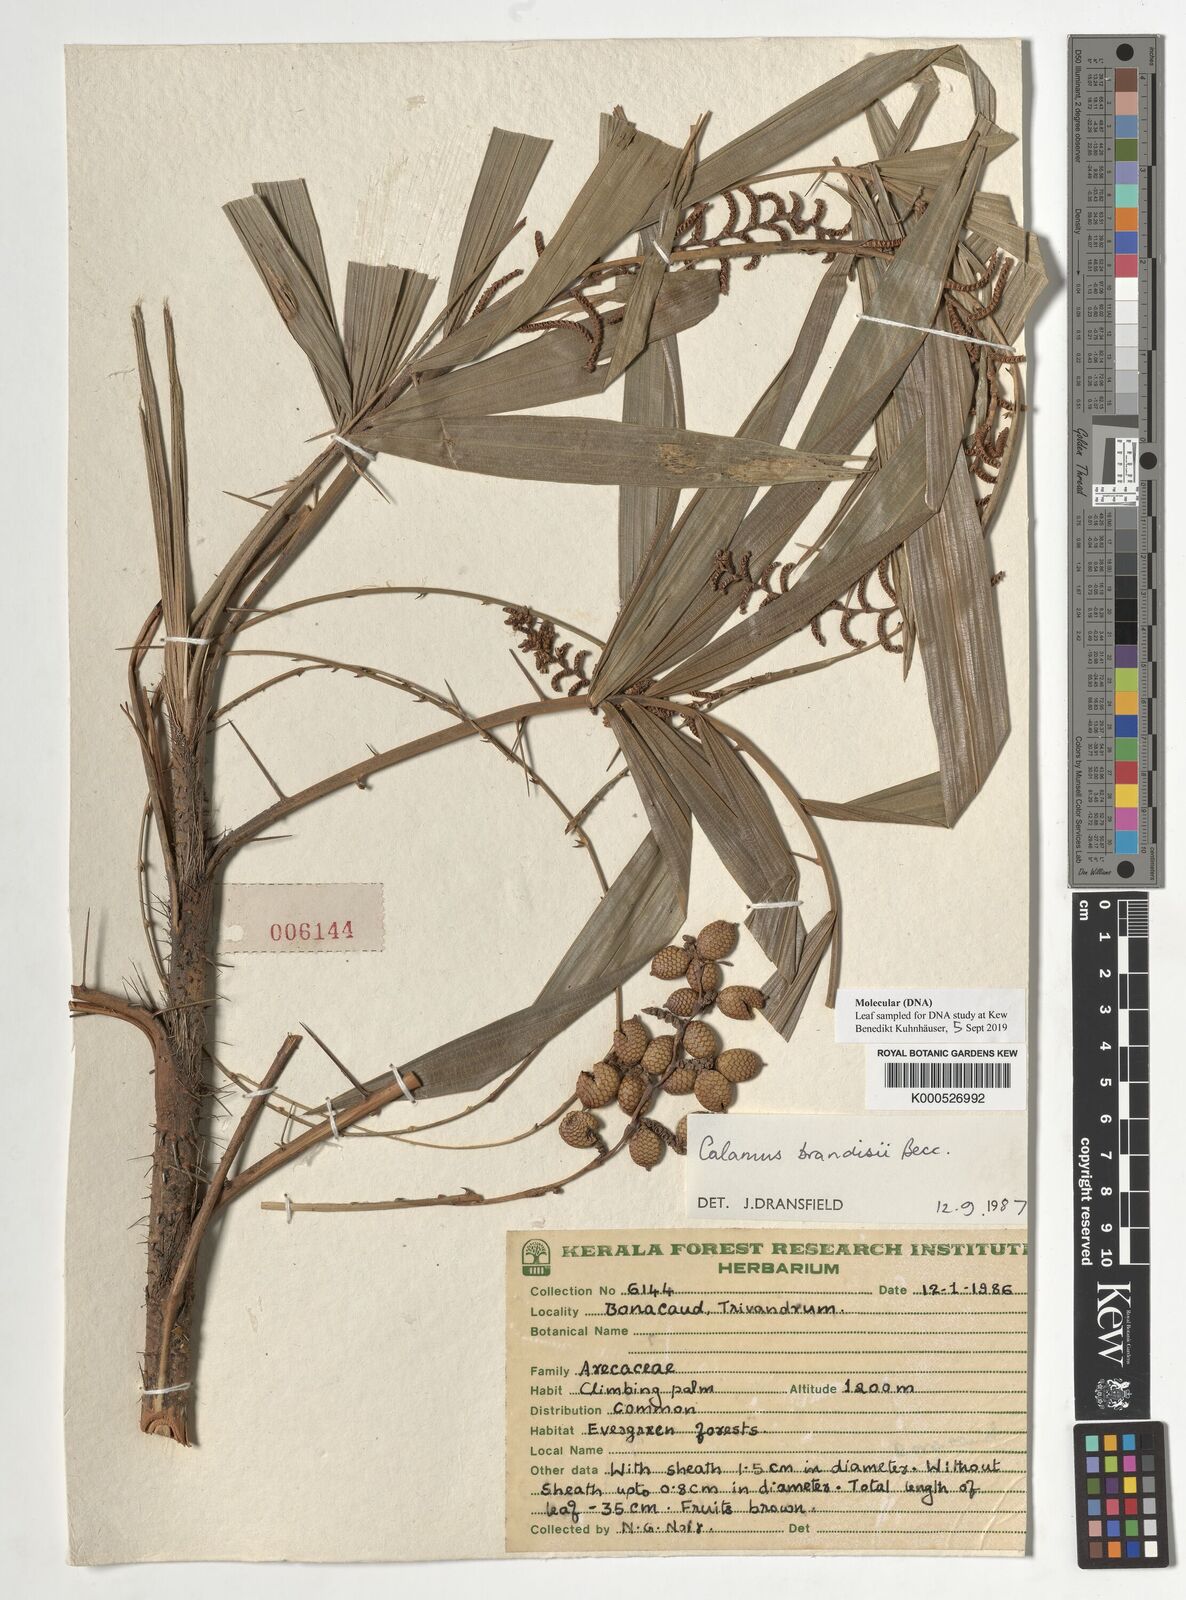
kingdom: Plantae
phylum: Tracheophyta
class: Liliopsida
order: Arecales
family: Arecaceae
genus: Calamus
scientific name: Calamus brandisii
